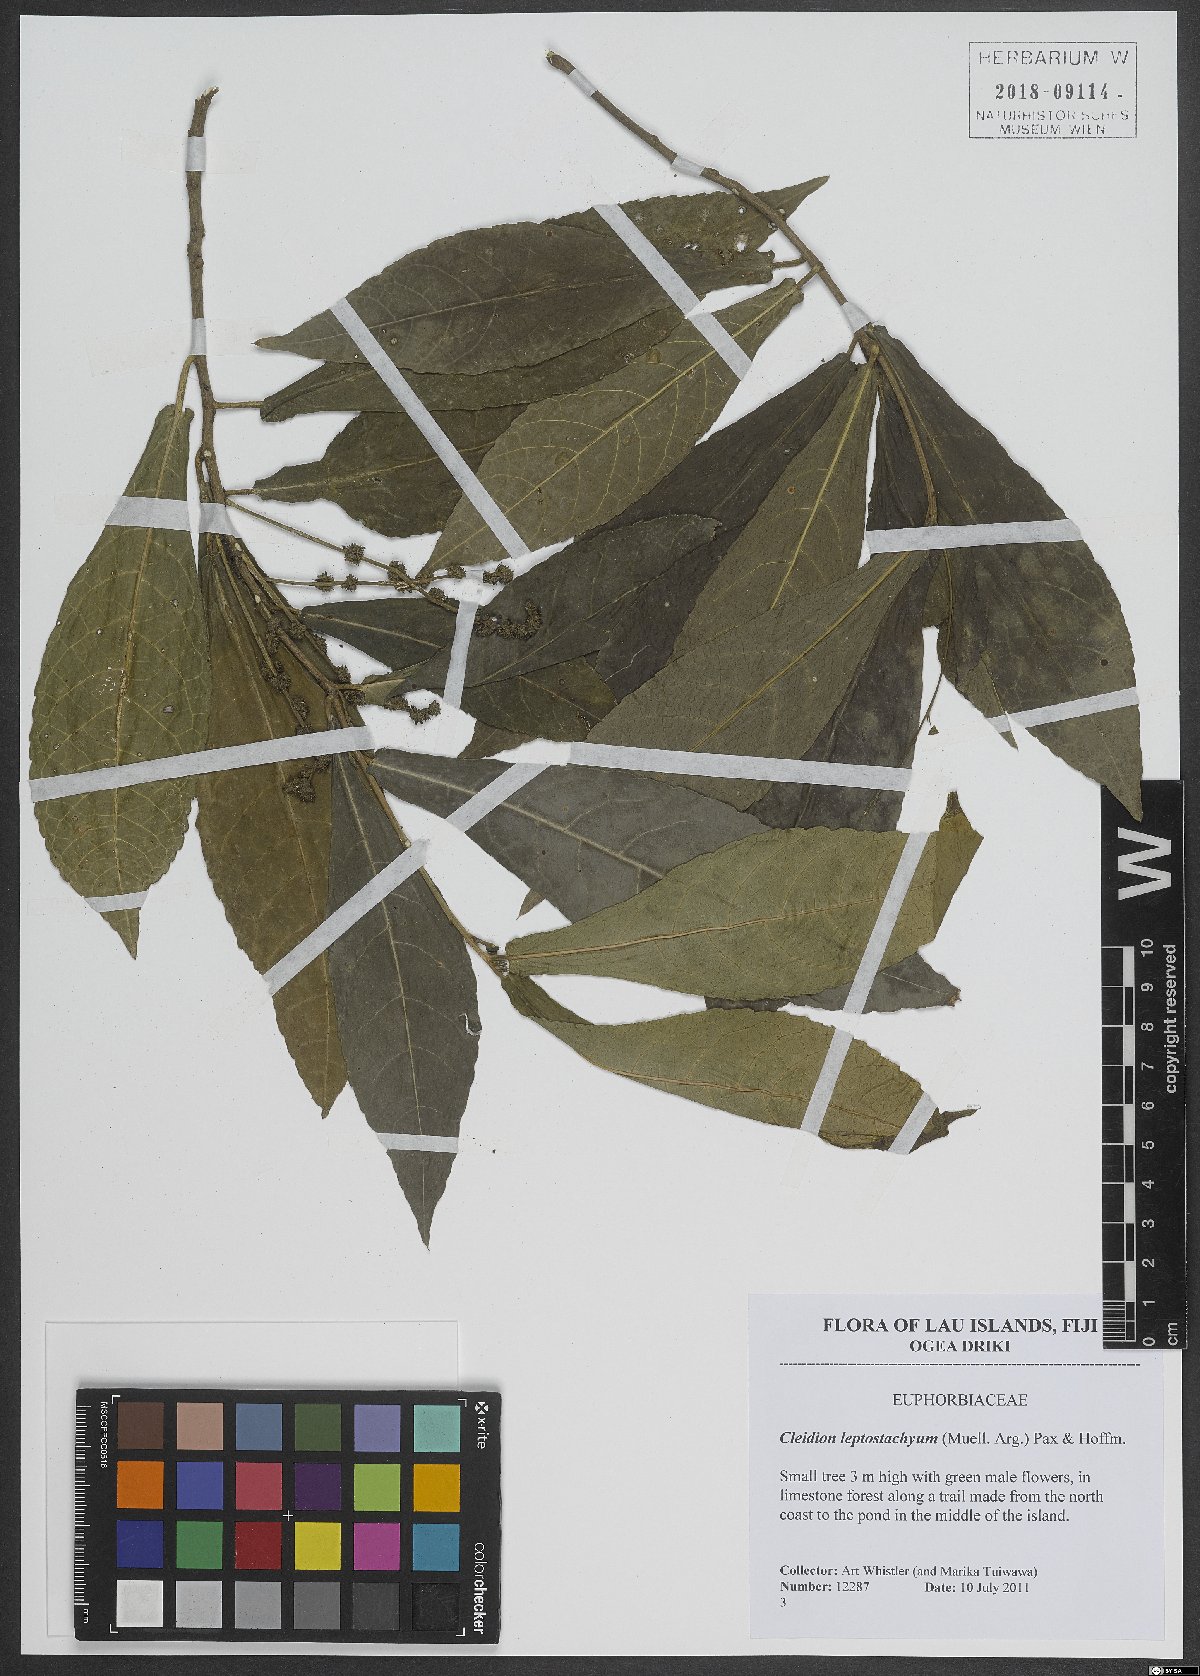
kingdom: Plantae
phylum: Tracheophyta
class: Magnoliopsida
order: Malpighiales
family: Euphorbiaceae
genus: Cleidion
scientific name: Cleidion leptostachyum
